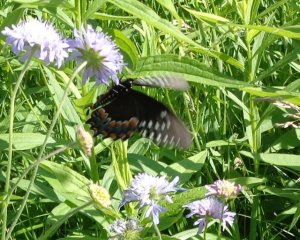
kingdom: Animalia
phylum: Arthropoda
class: Insecta
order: Lepidoptera
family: Papilionidae
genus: Pterourus
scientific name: Pterourus troilus
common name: Spicebush Swallowtail
